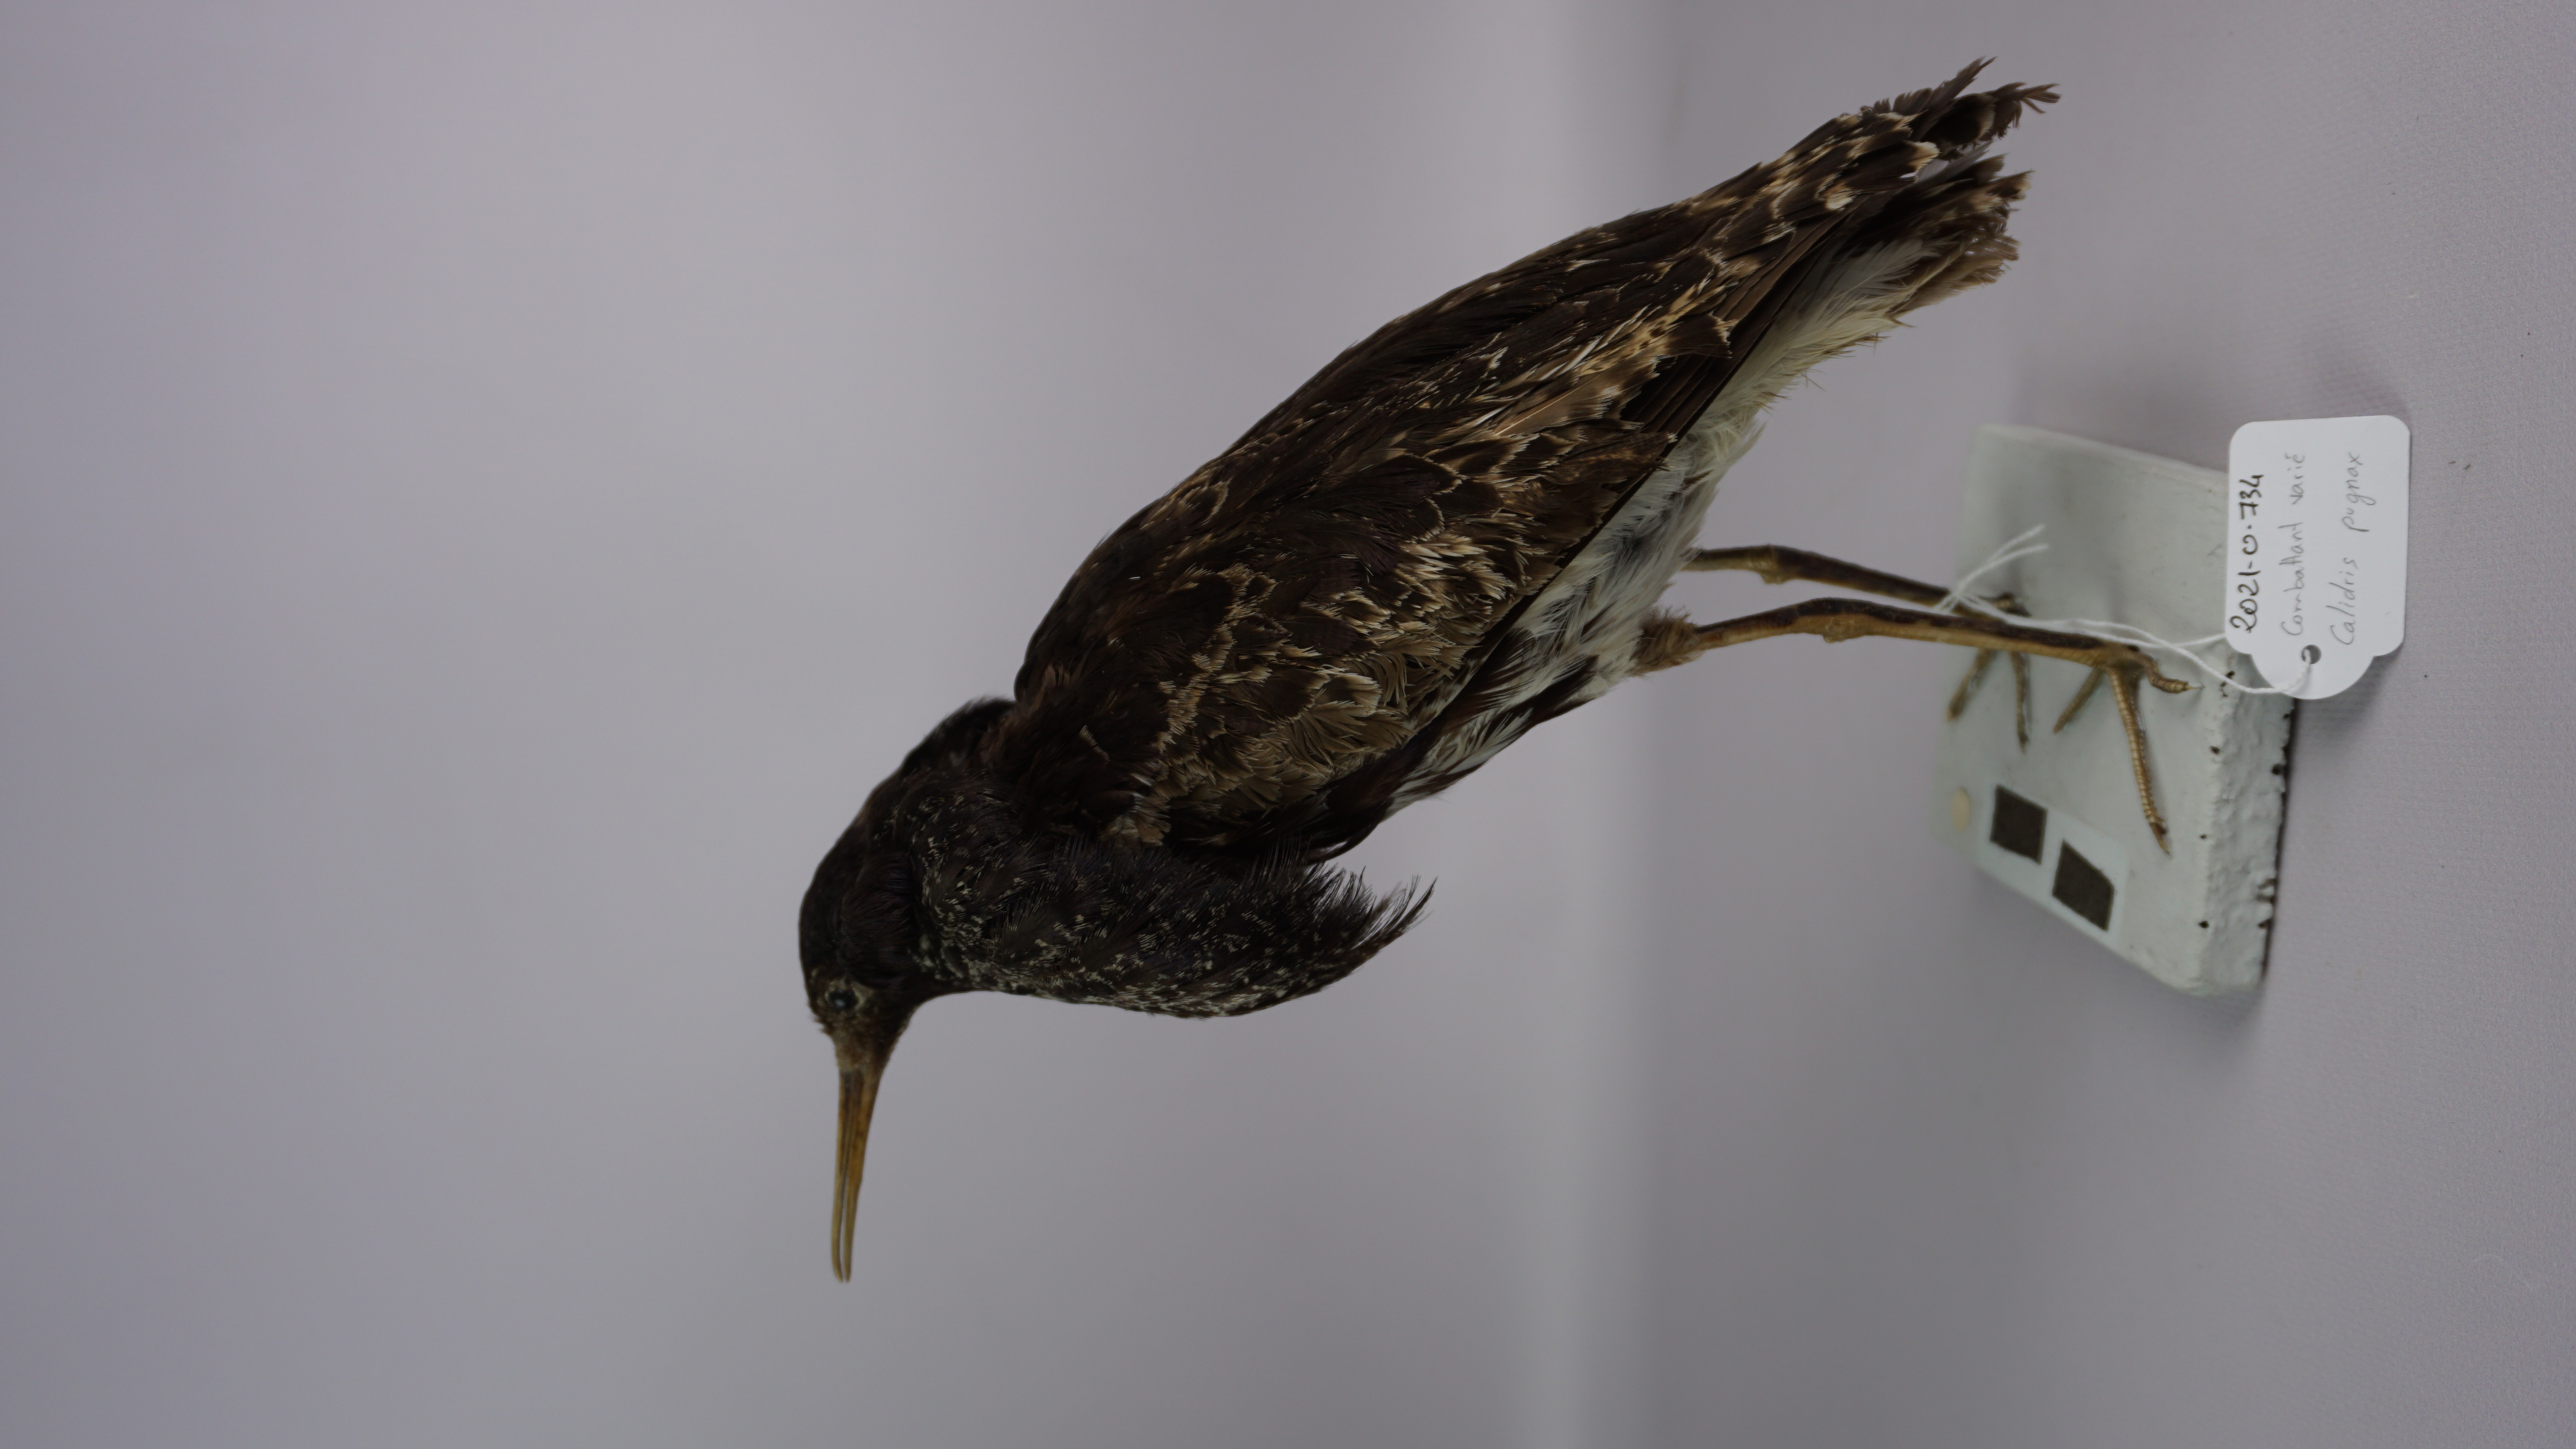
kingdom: Animalia
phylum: Chordata
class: Aves
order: Charadriiformes
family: Scolopacidae
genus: Calidris
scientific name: Calidris pugnax
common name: Ruff
